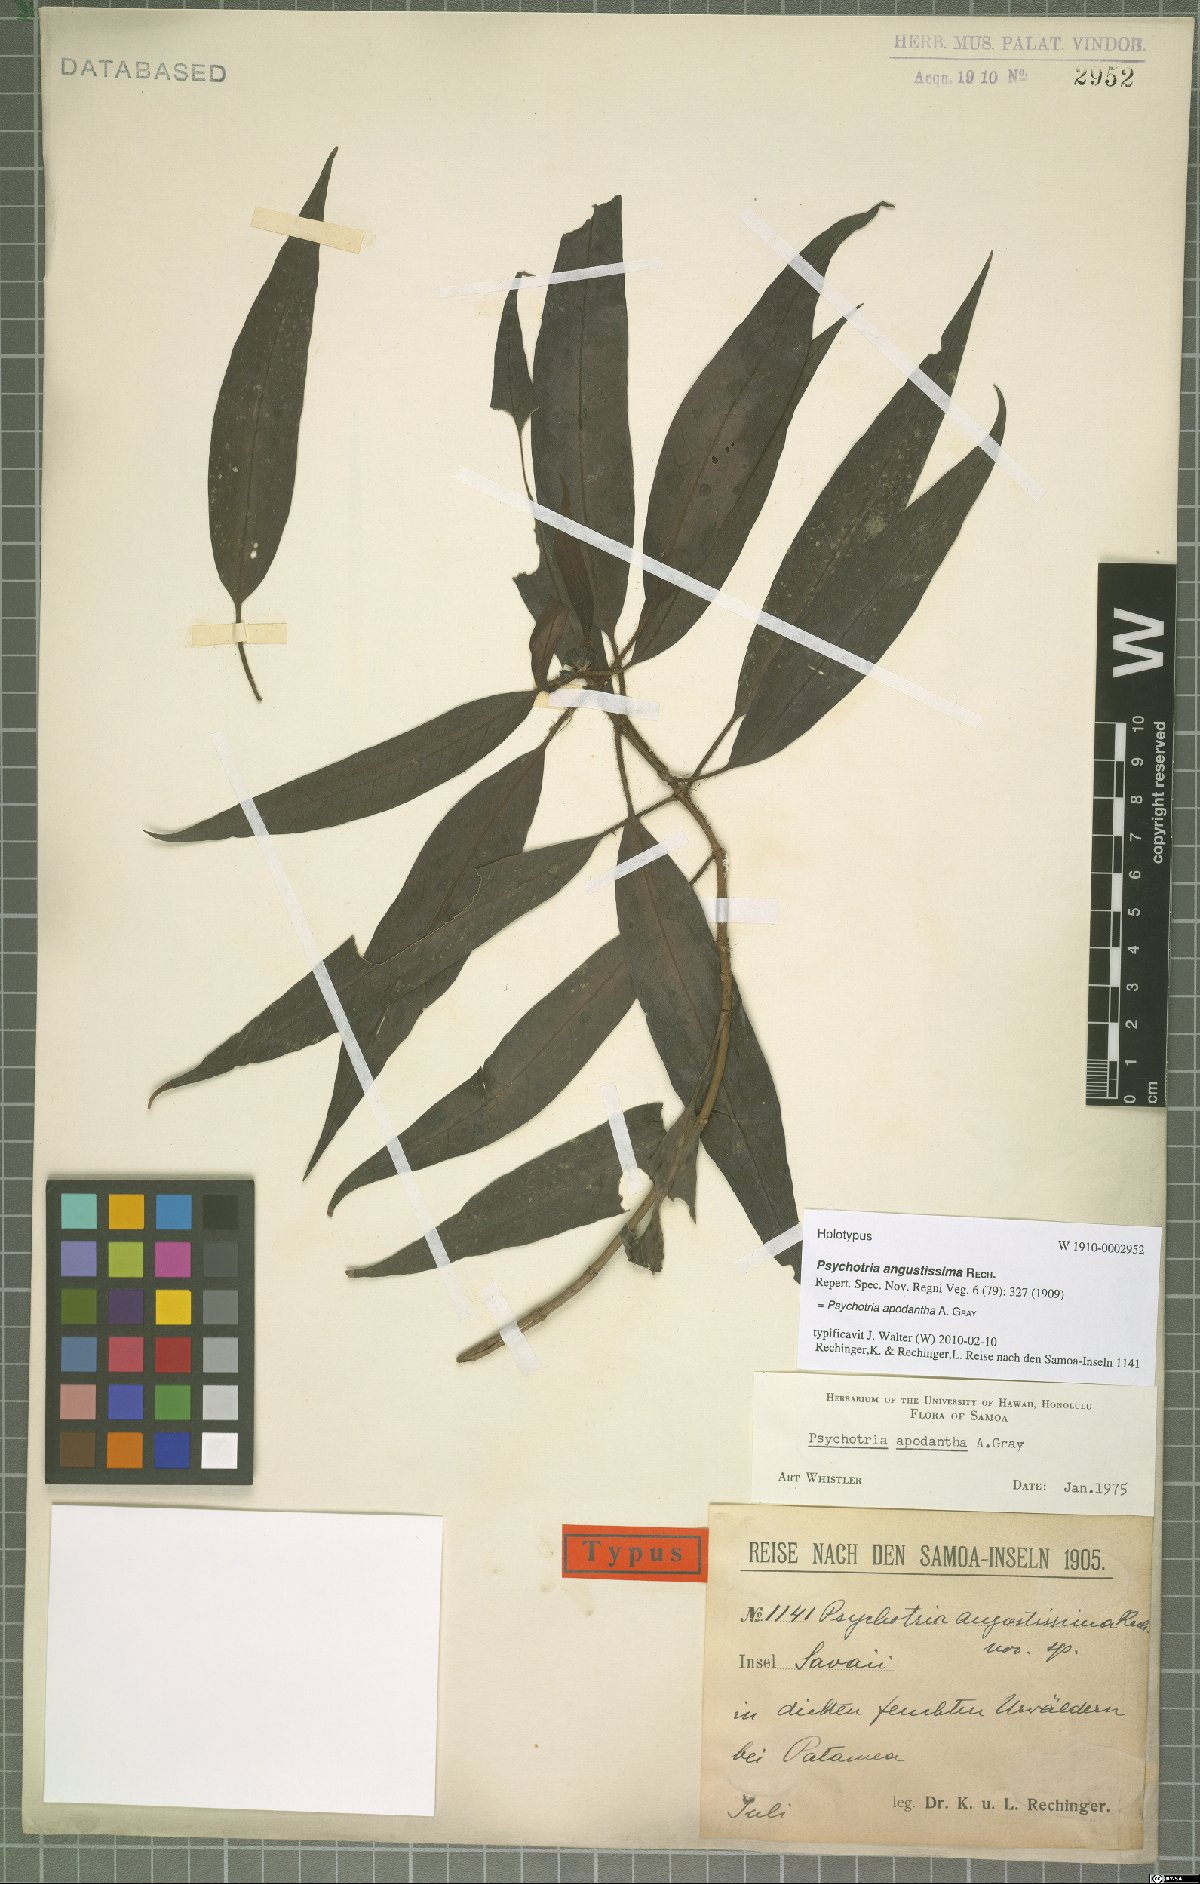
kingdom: Plantae
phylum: Tracheophyta
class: Magnoliopsida
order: Gentianales
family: Rubiaceae
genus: Psychotria
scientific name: Psychotria apodantha
